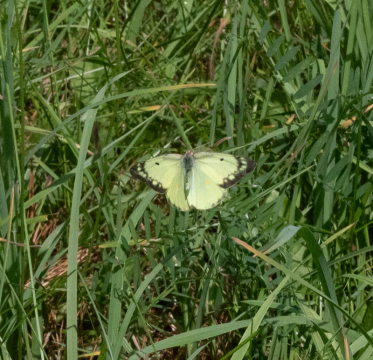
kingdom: Animalia
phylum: Arthropoda
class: Insecta
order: Lepidoptera
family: Pieridae
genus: Colias
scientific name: Colias philodice
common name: Clouded Sulphur
